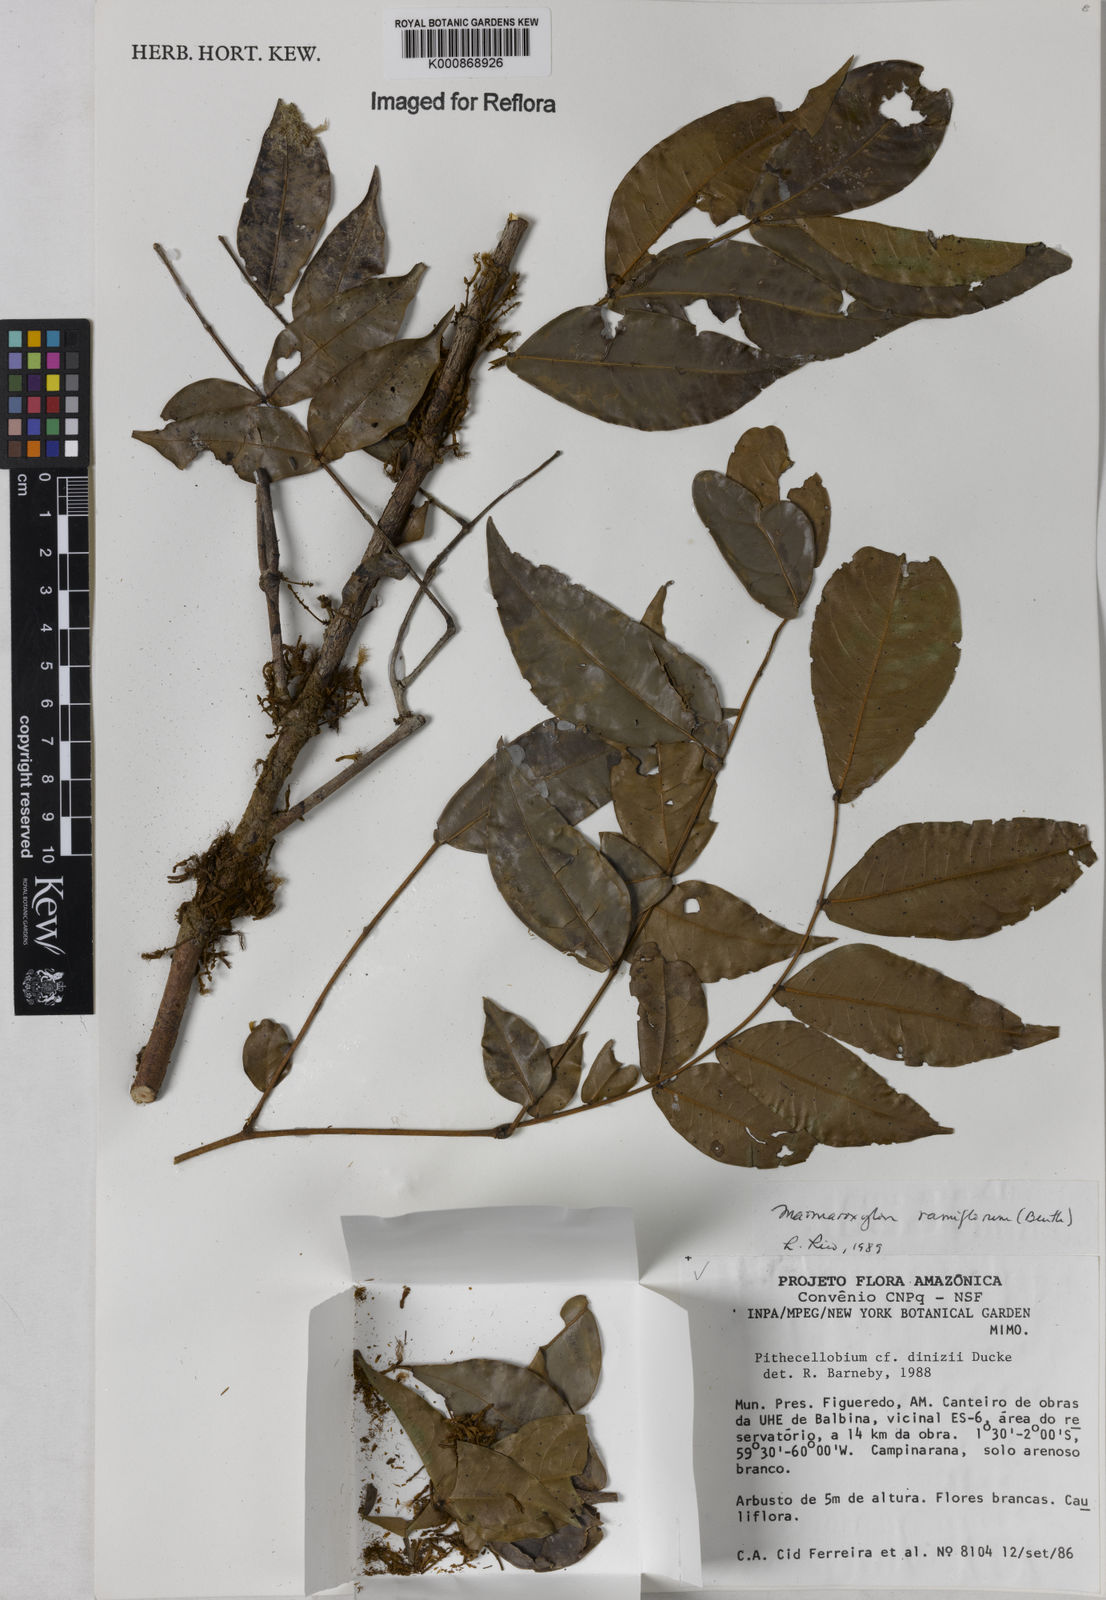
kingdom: Plantae
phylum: Tracheophyta
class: Magnoliopsida
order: Fabales
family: Fabaceae
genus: Zygia
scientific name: Zygia dinizii
